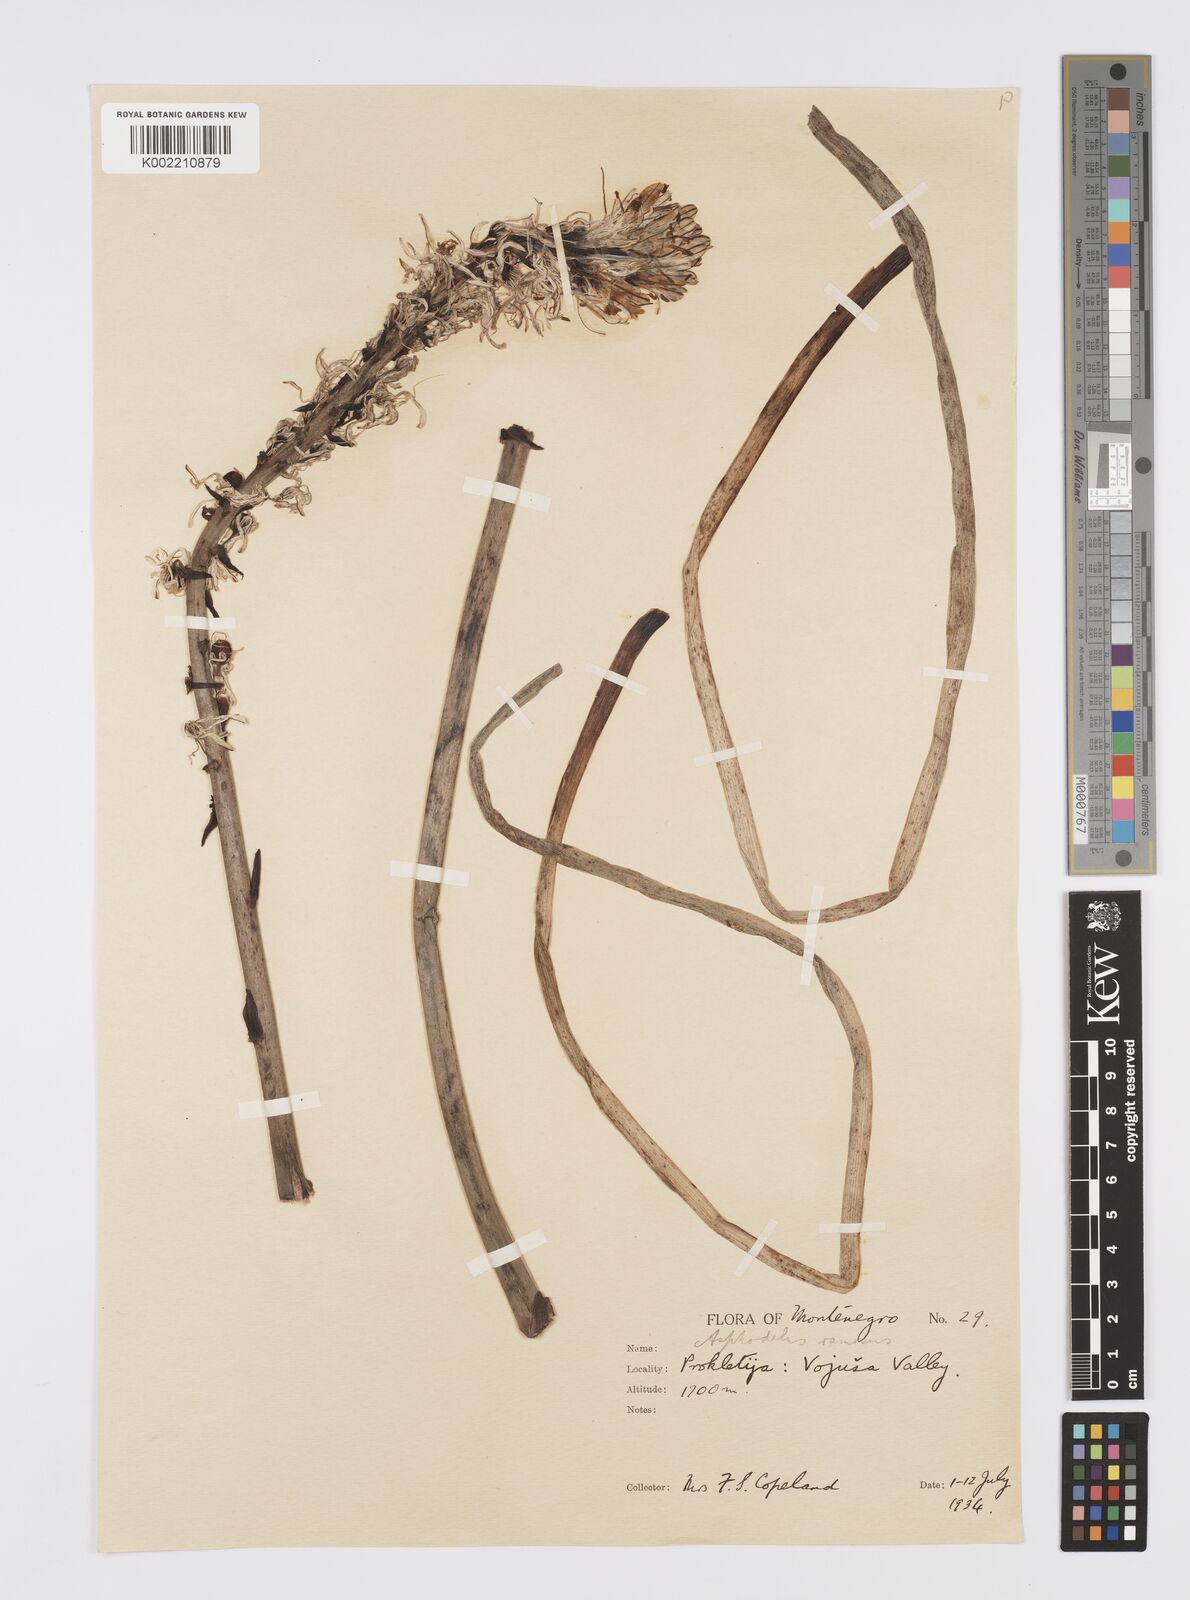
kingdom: Plantae
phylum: Tracheophyta
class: Liliopsida
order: Asparagales
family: Asphodelaceae
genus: Asphodelus
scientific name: Asphodelus albus
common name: White asphodel
